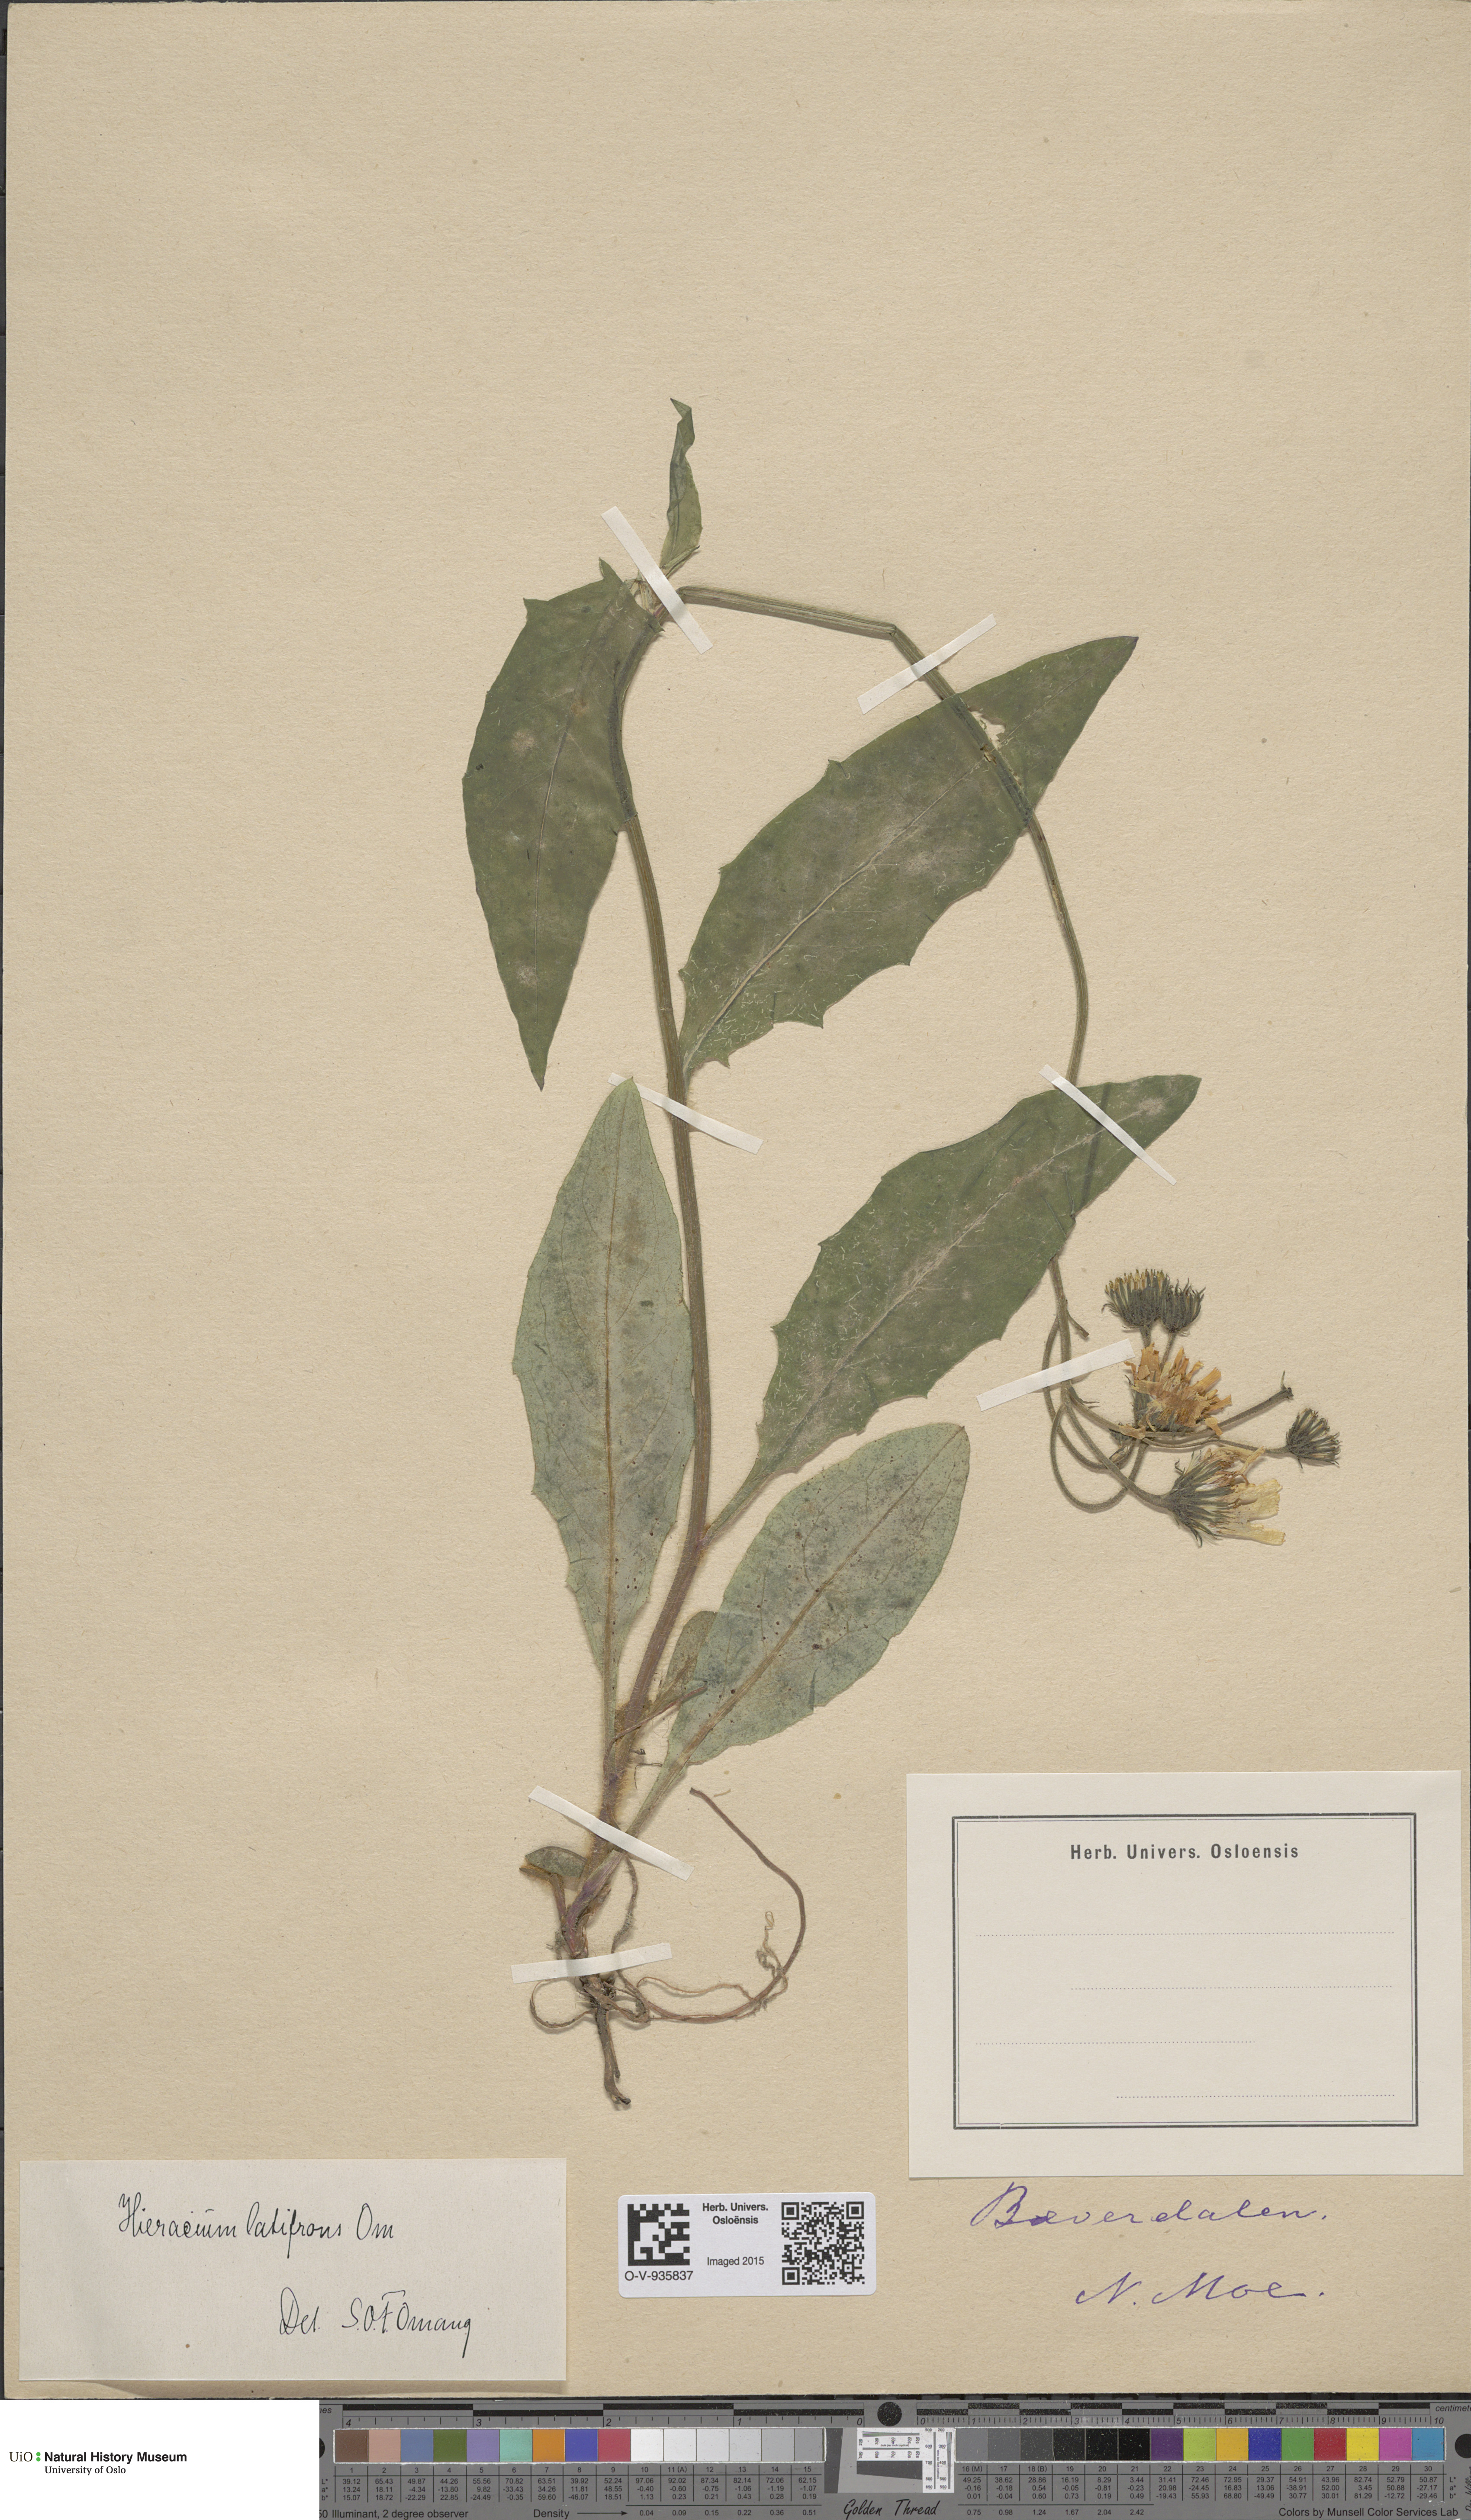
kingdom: Plantae
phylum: Tracheophyta
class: Magnoliopsida
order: Asterales
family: Asteraceae
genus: Hieracium
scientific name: Hieracium saxifragum
